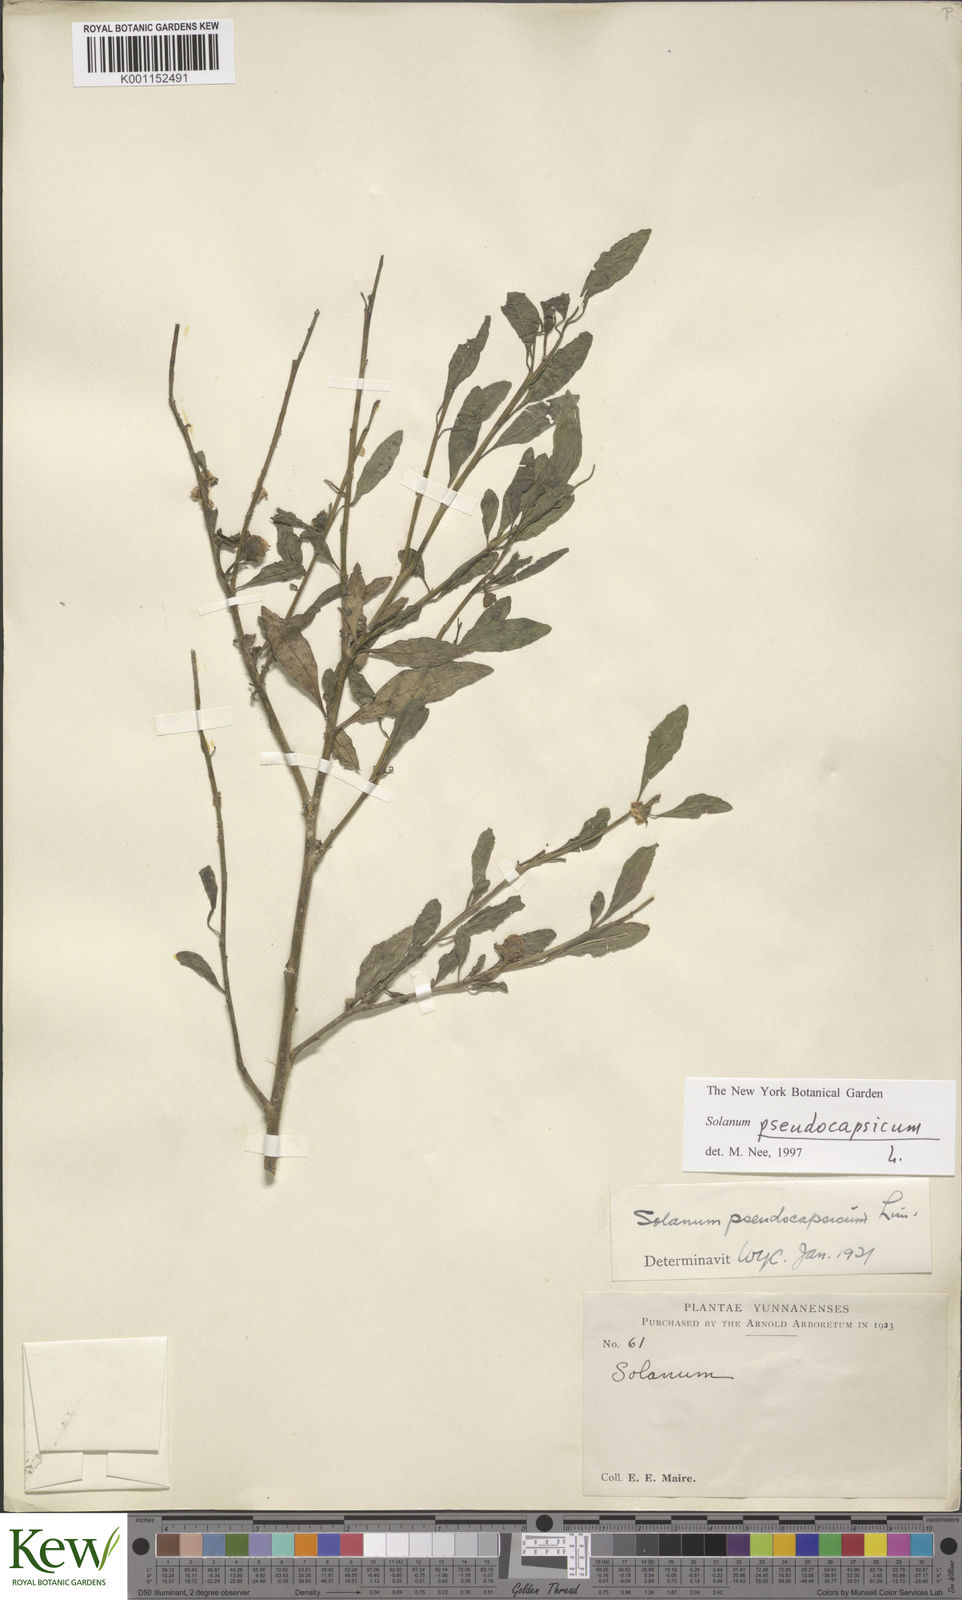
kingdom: Plantae
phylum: Tracheophyta
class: Magnoliopsida
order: Solanales
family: Solanaceae
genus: Solanum
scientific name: Solanum pseudocapsicum
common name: Jerusalem cherry
